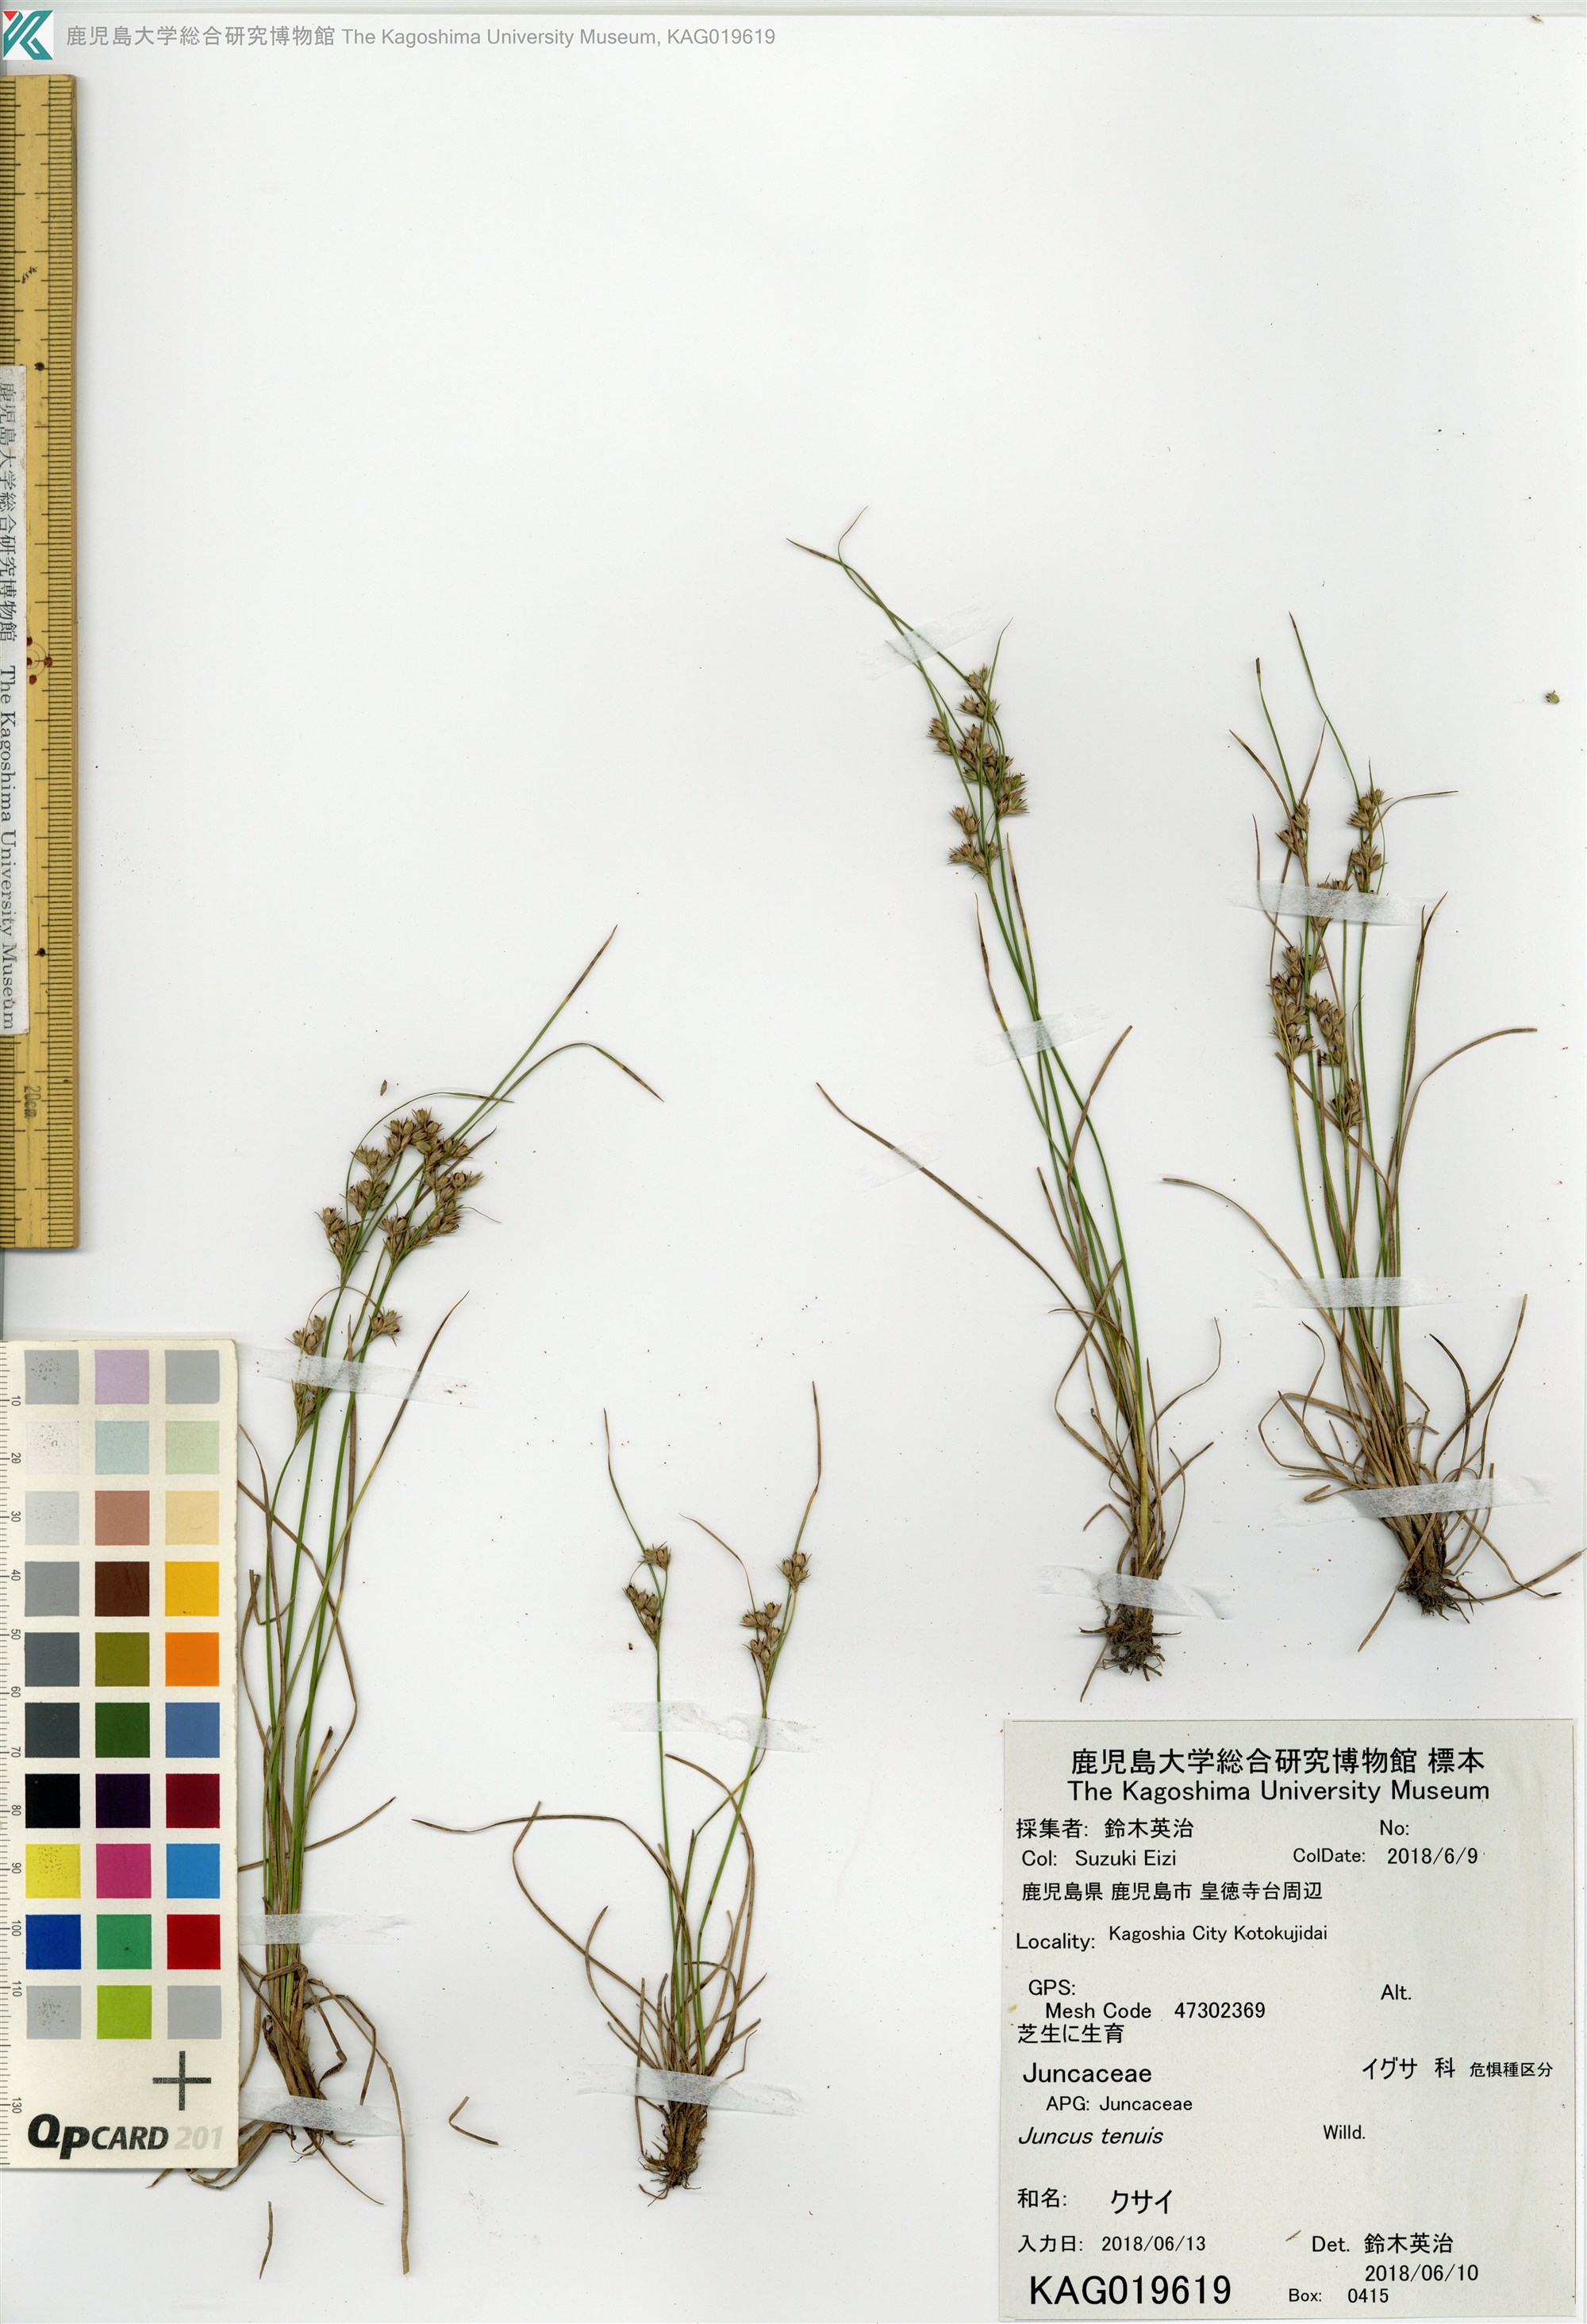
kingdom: Plantae
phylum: Tracheophyta
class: Liliopsida
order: Poales
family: Juncaceae
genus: Juncus
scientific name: Juncus tenuis
